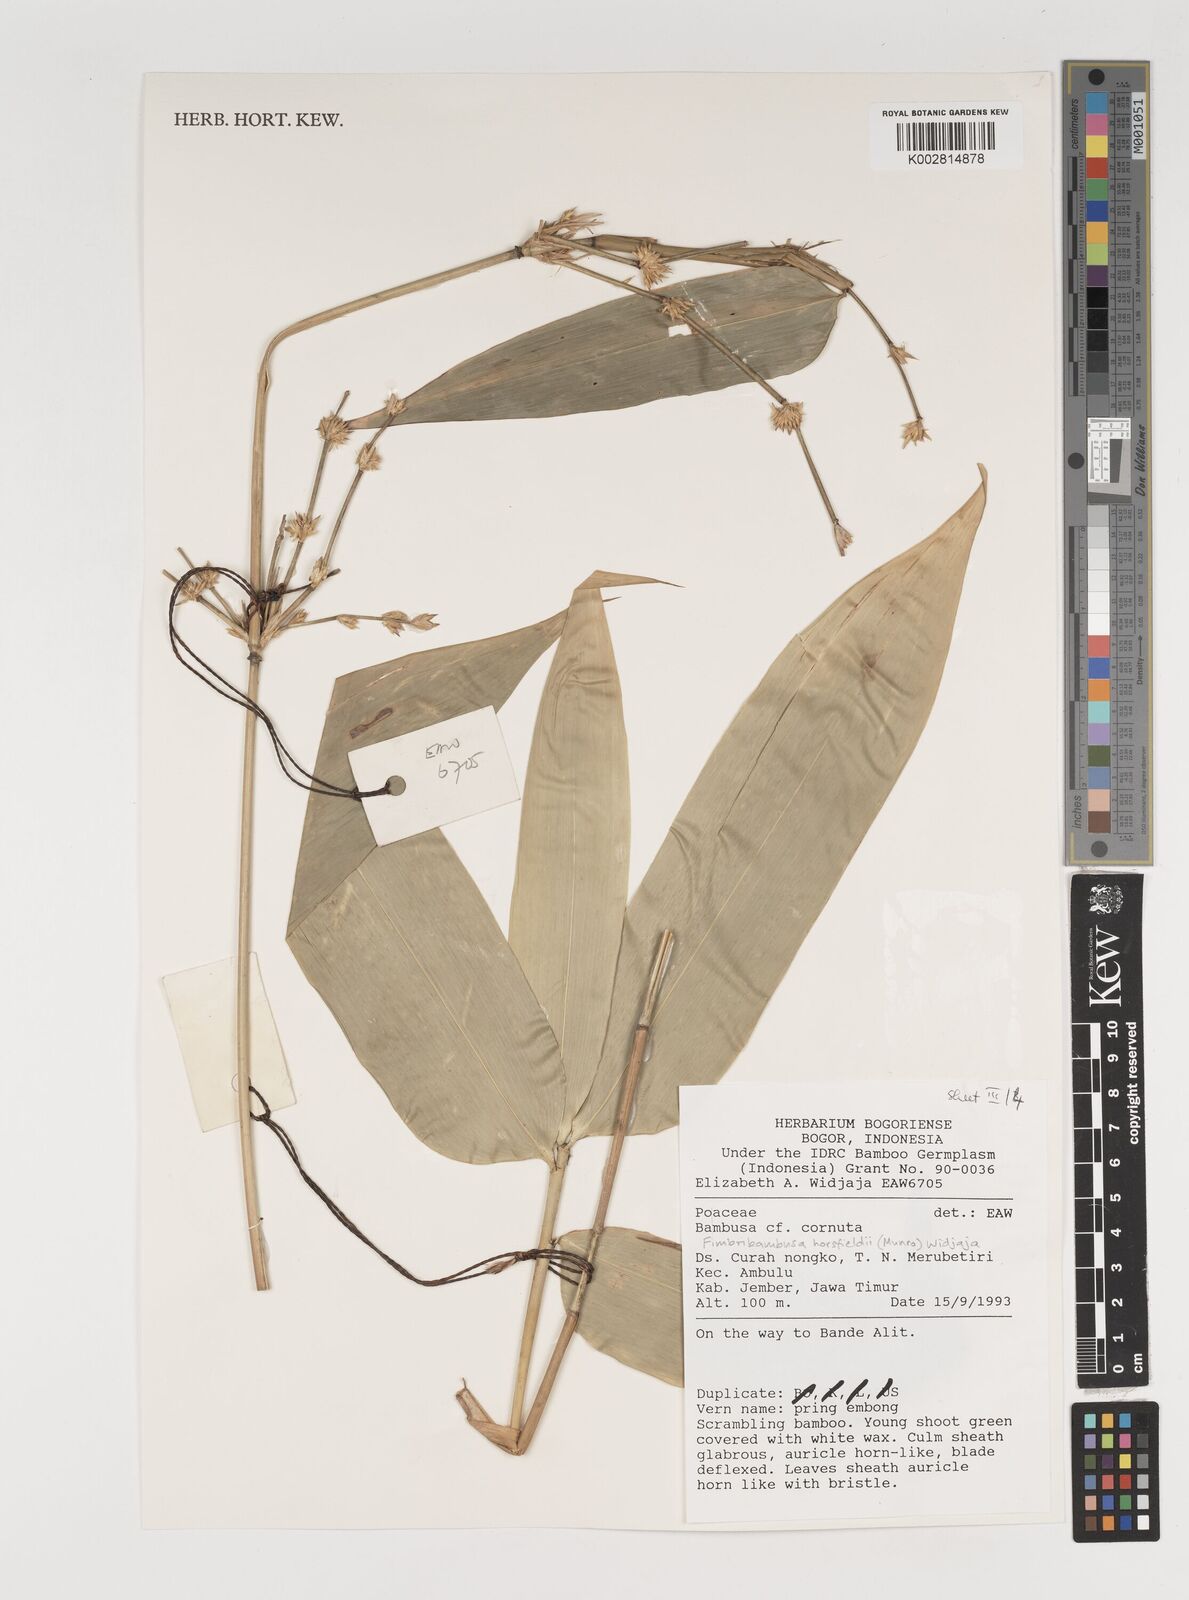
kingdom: Plantae
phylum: Tracheophyta
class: Liliopsida
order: Poales
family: Poaceae
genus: Fimbribambusa
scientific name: Fimbribambusa horsfieldii
